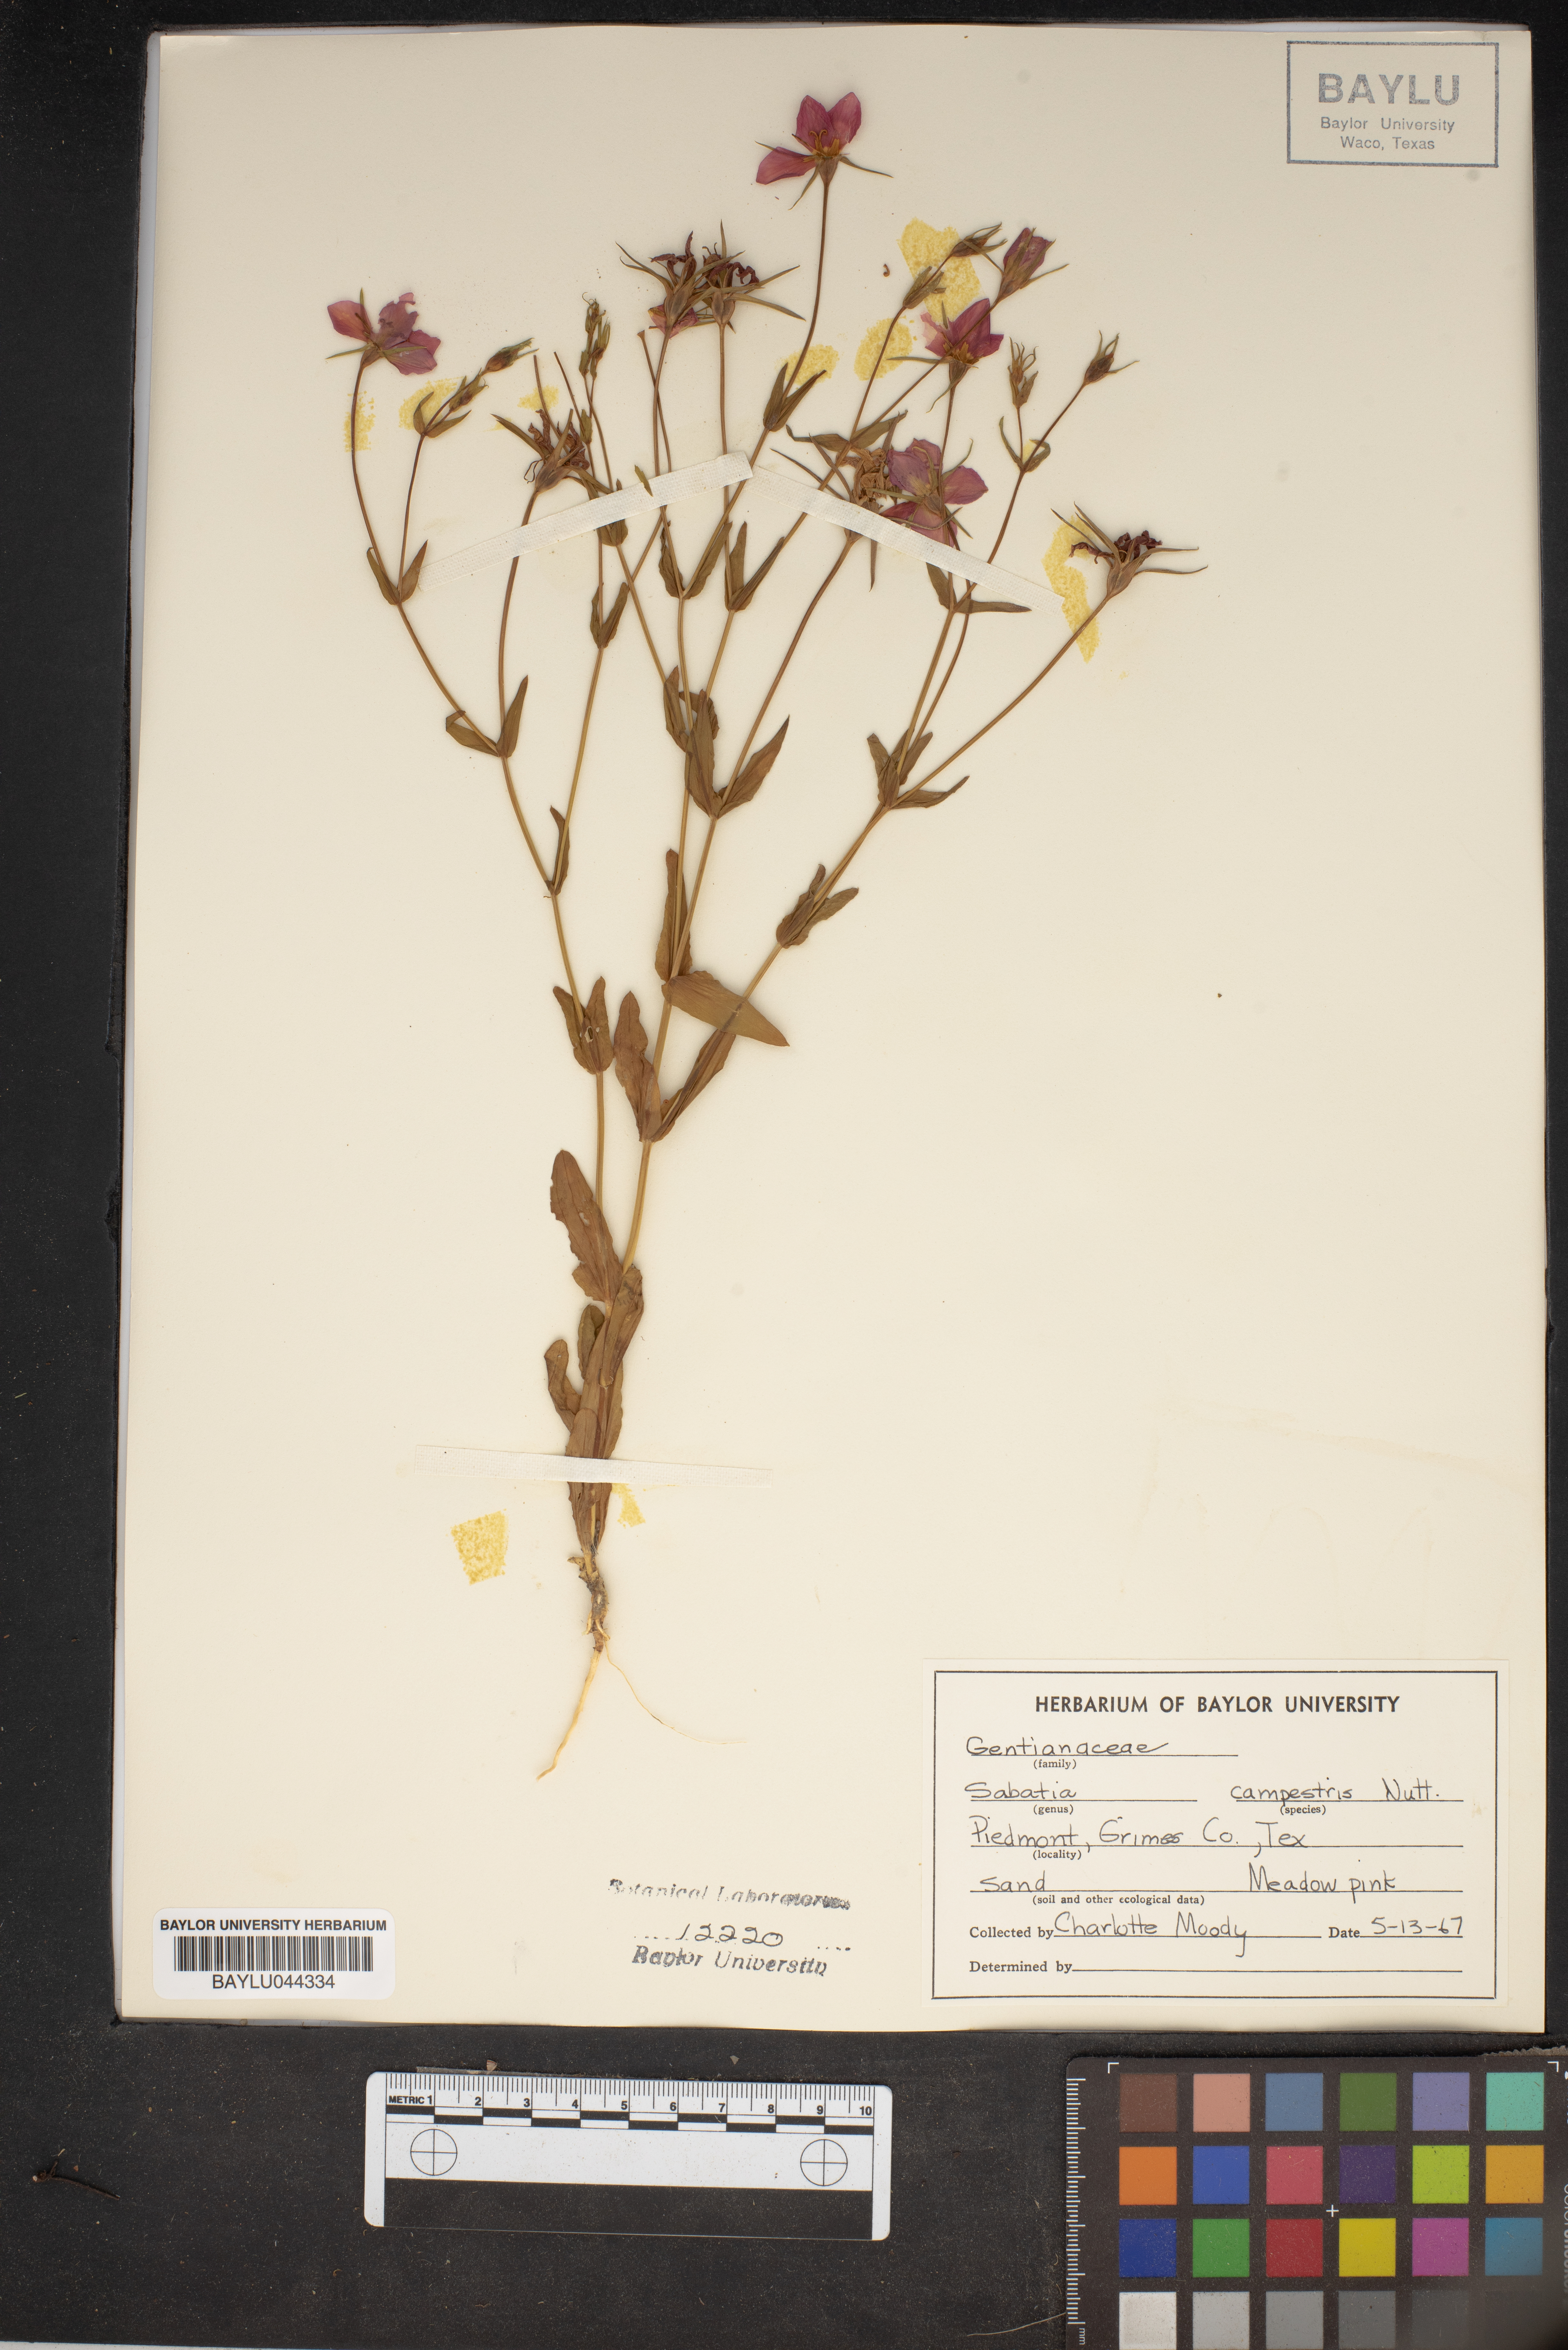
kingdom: Plantae
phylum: Tracheophyta
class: Magnoliopsida
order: Gentianales
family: Gentianaceae
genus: Sabatia
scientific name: Sabatia campestris
